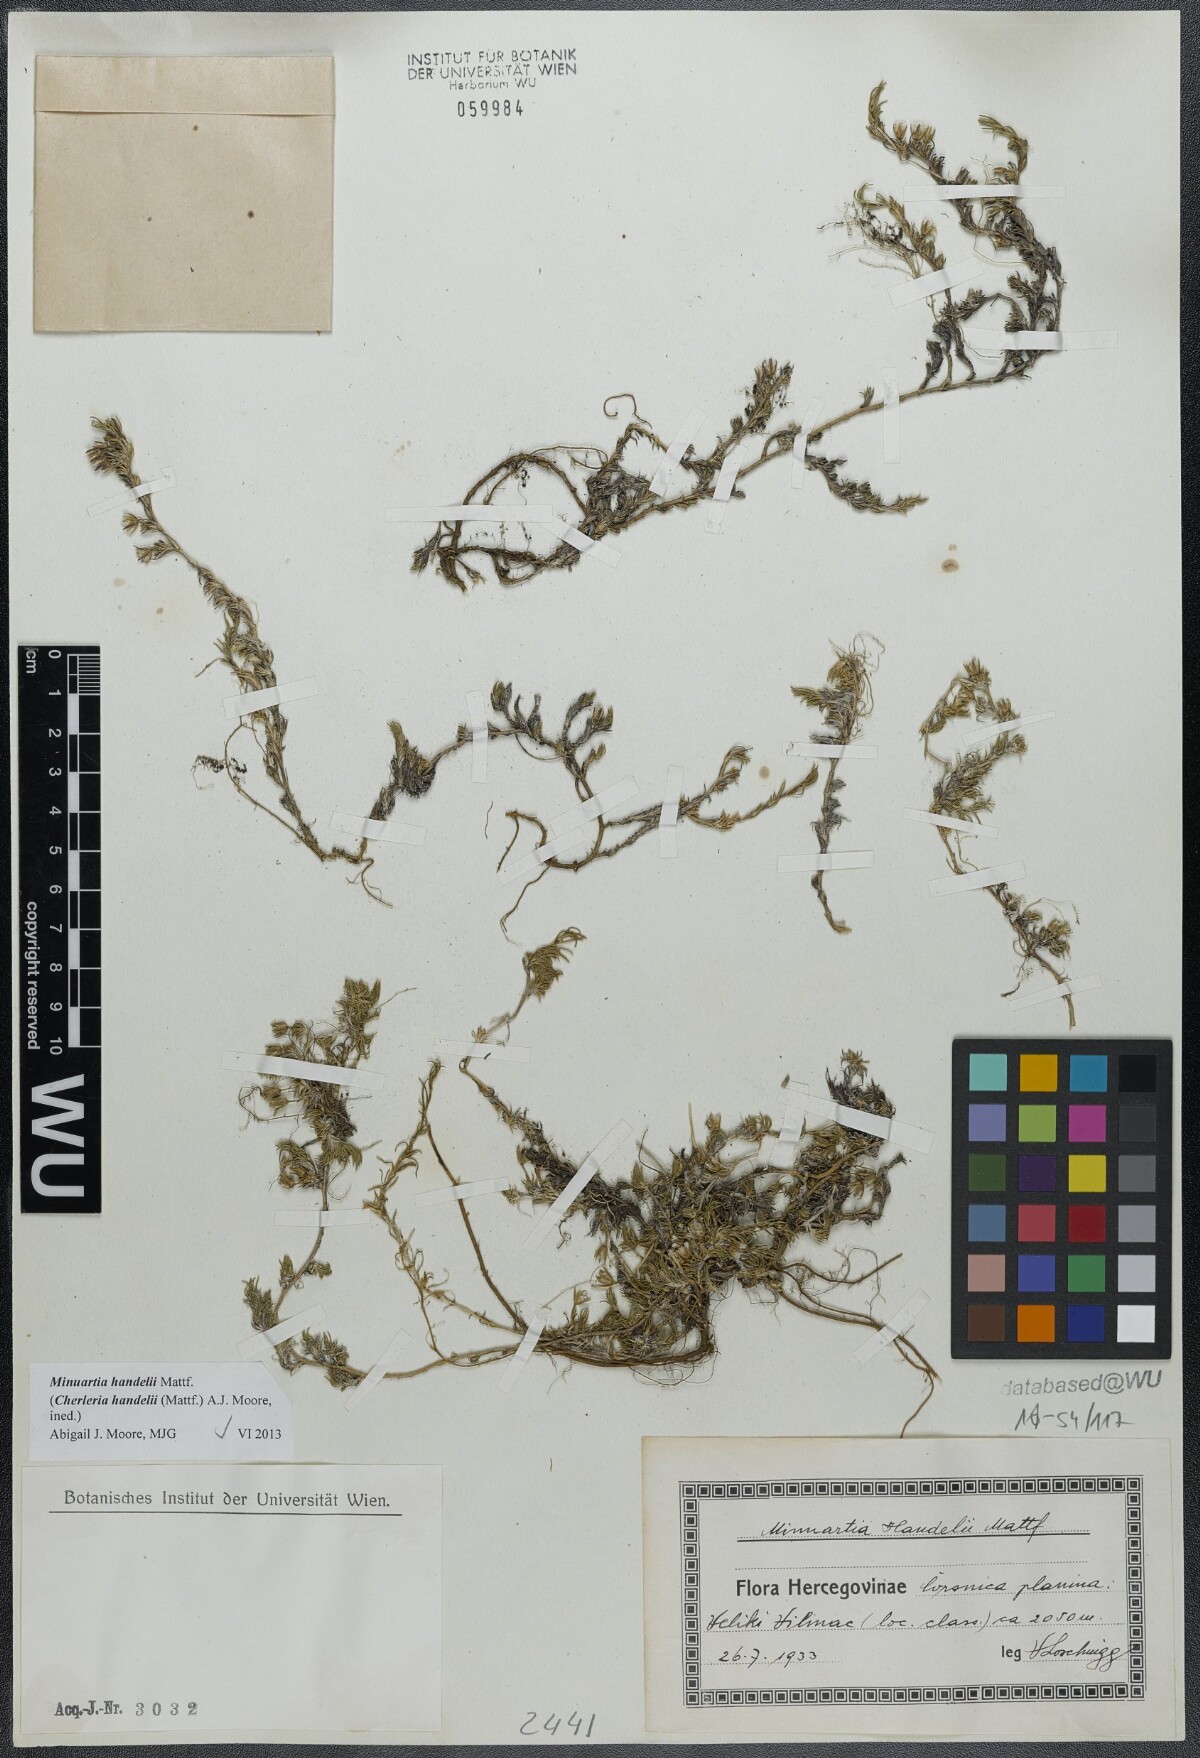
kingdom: Plantae
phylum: Tracheophyta
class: Magnoliopsida
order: Caryophyllales
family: Caryophyllaceae
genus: Cherleria
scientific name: Cherleria handelii
